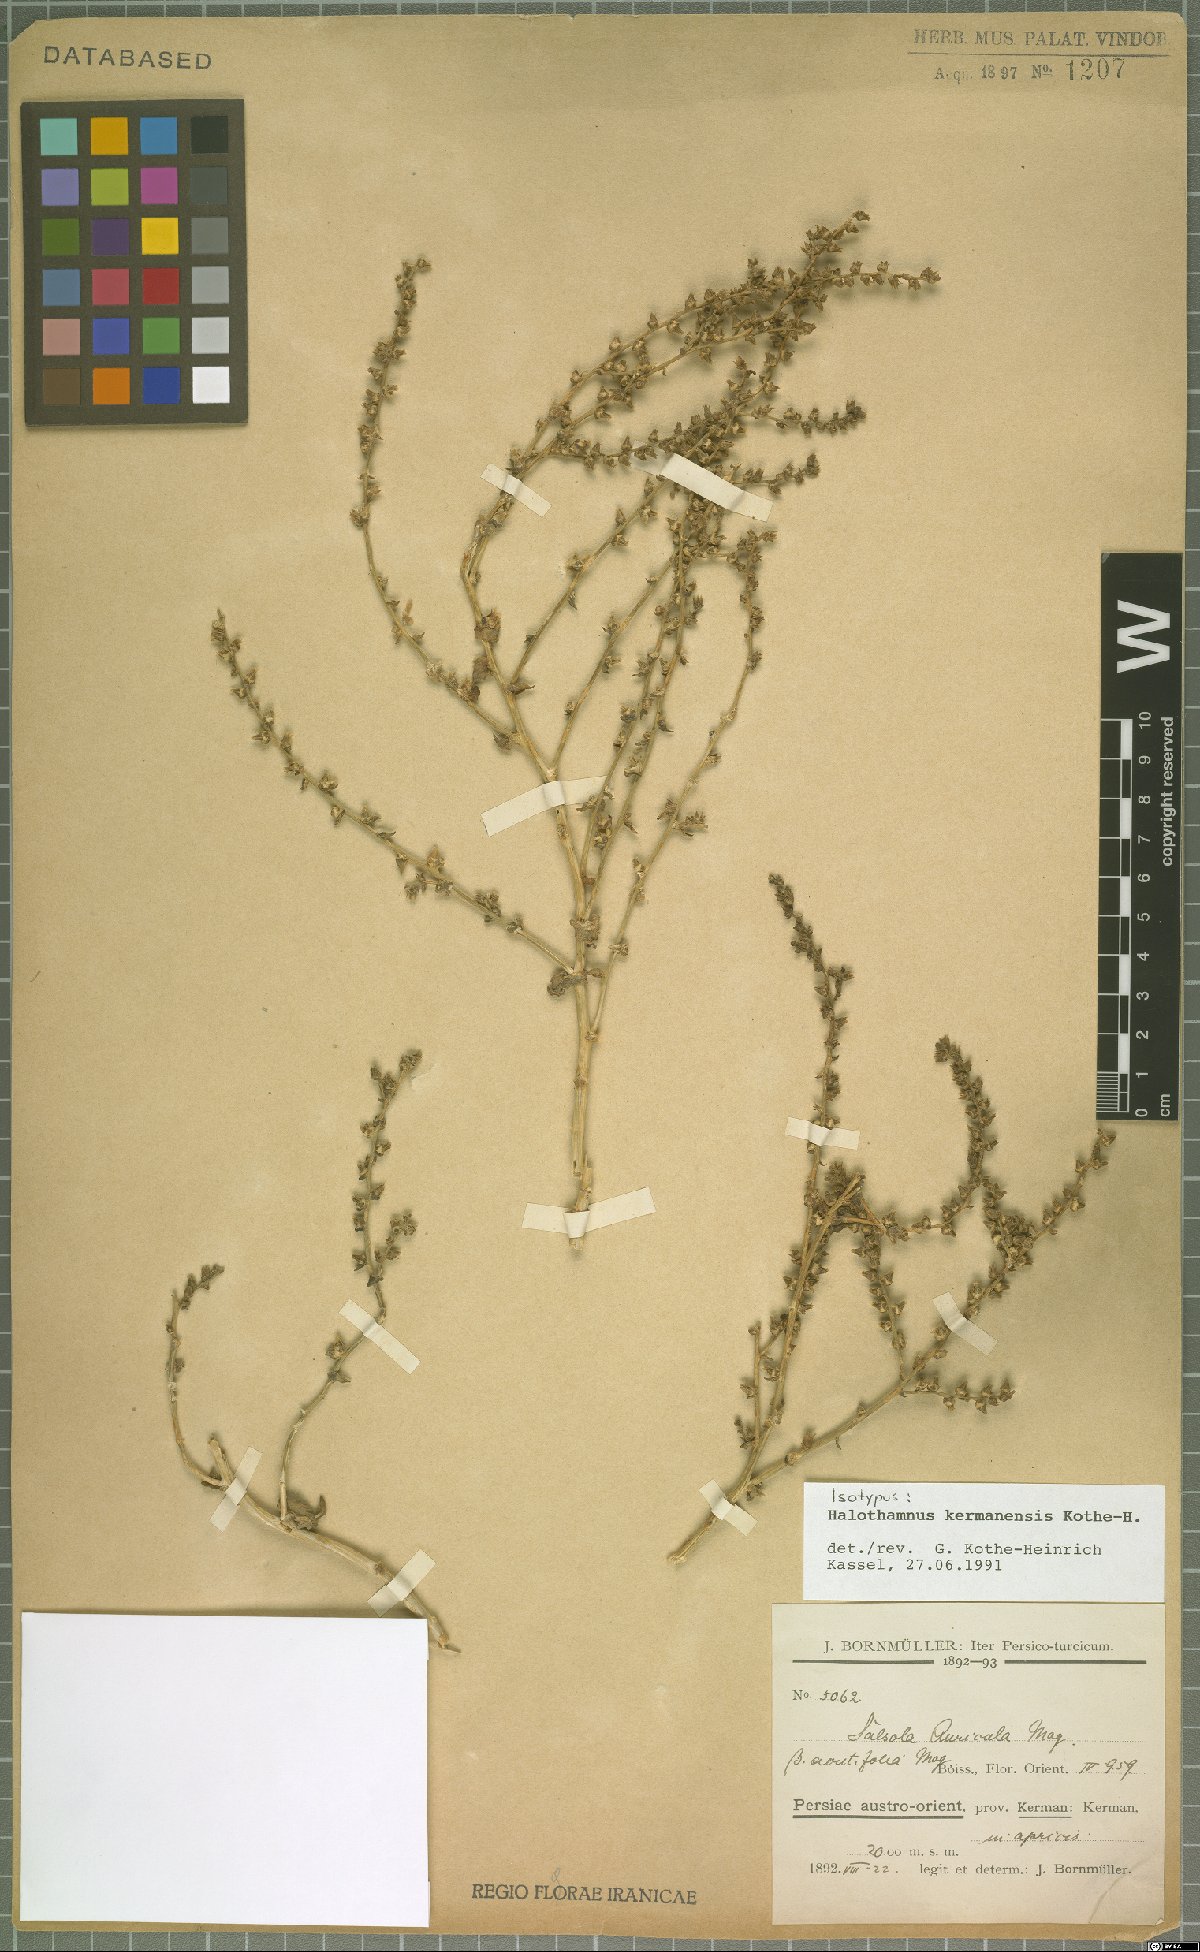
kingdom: Plantae
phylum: Tracheophyta
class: Magnoliopsida
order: Caryophyllales
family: Amaranthaceae
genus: Halothamnus
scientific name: Halothamnus kermanensis
